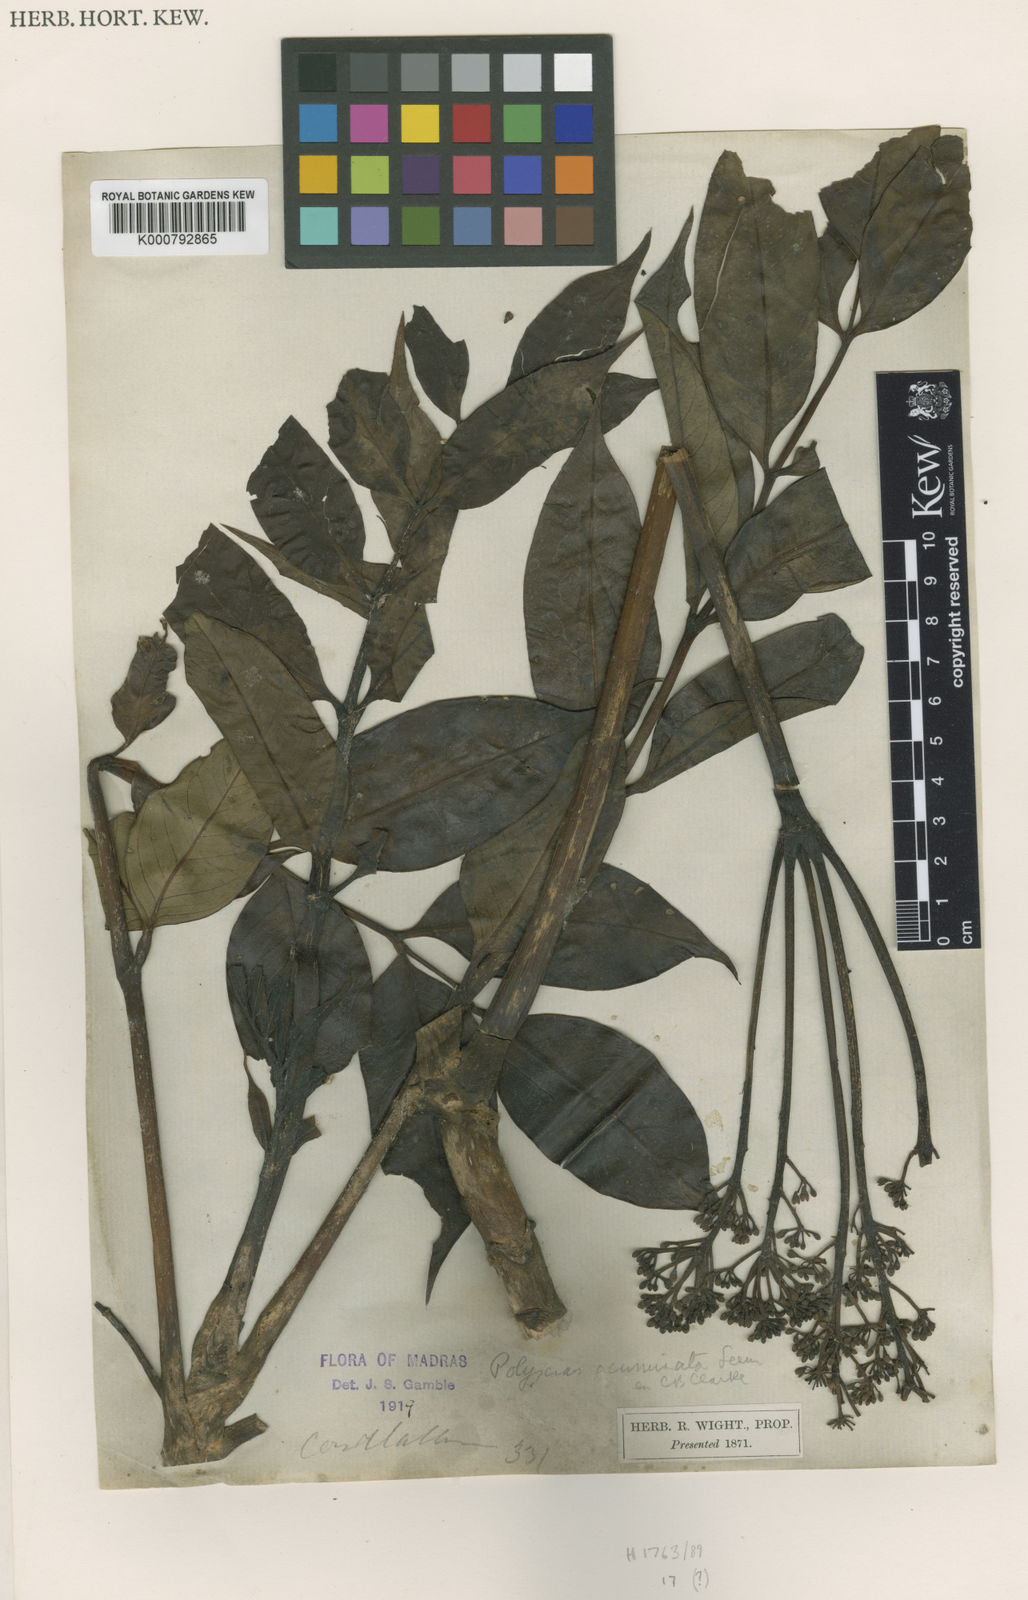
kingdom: Plantae
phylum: Tracheophyta
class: Magnoliopsida
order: Apiales
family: Araliaceae
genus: Polyscias
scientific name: Polyscias acuminata
